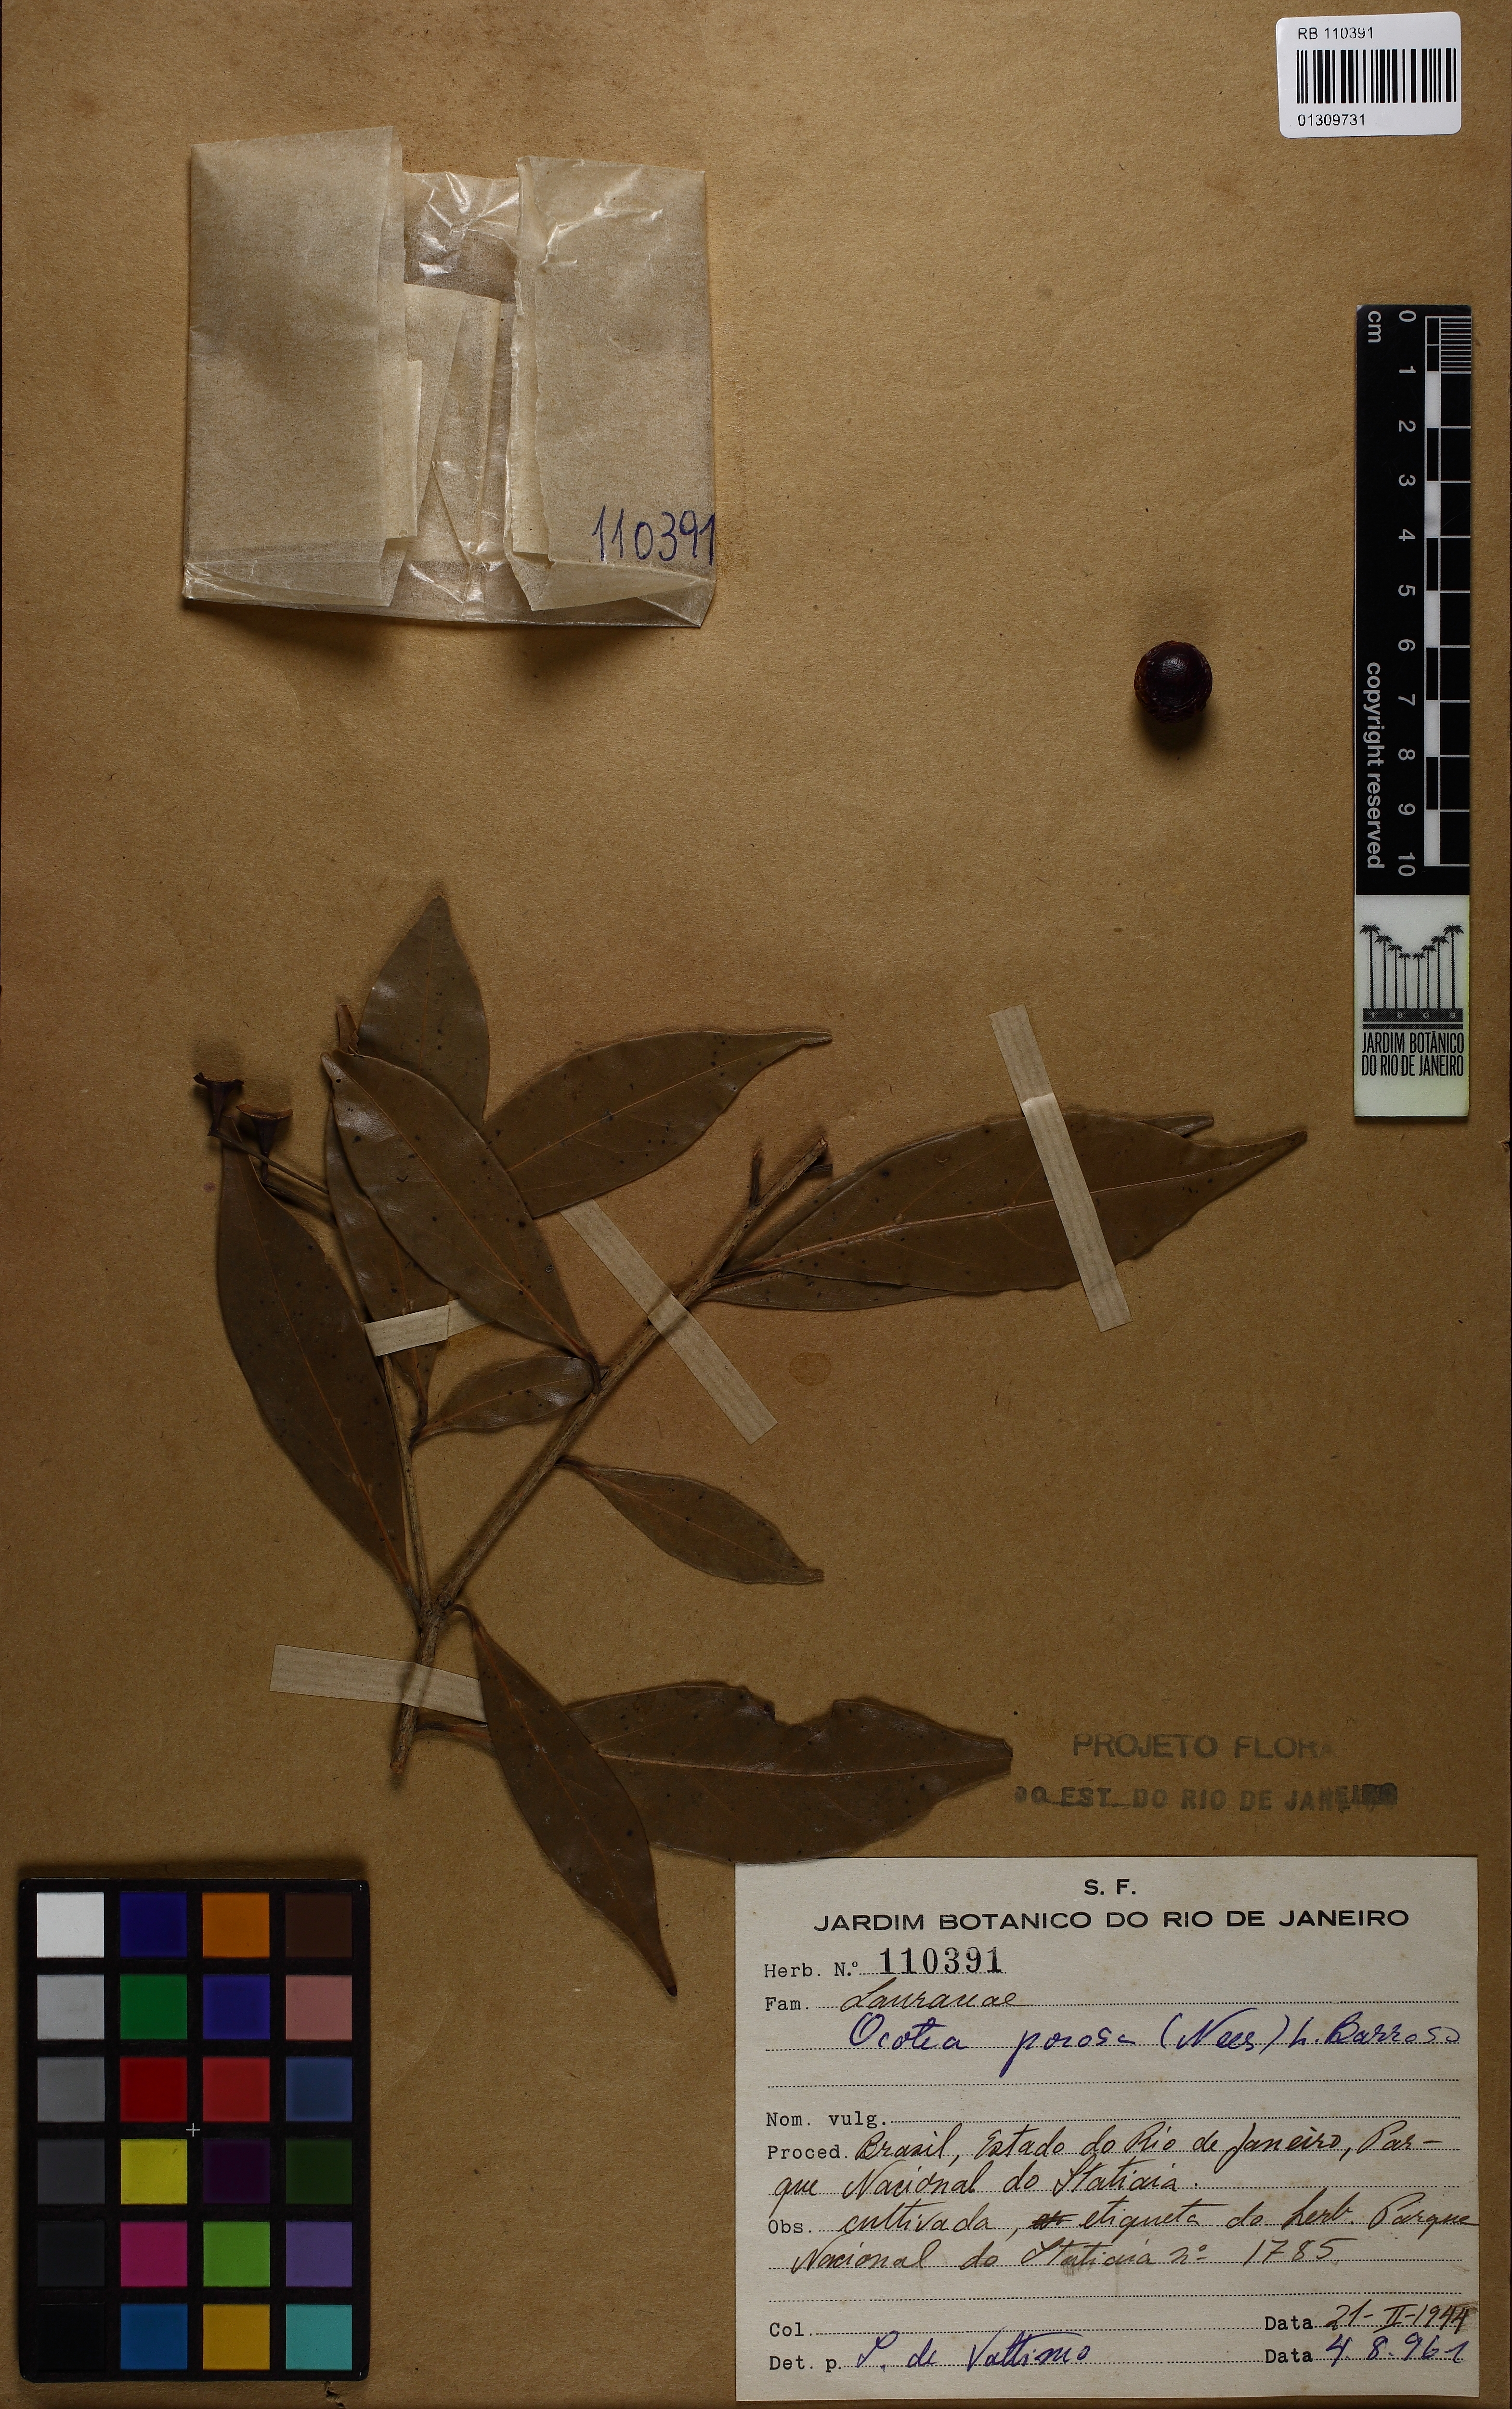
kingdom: Plantae
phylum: Tracheophyta
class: Magnoliopsida
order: Laurales
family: Lauraceae
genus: Ocotea
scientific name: Ocotea porosa
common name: Brazilian-walnut
